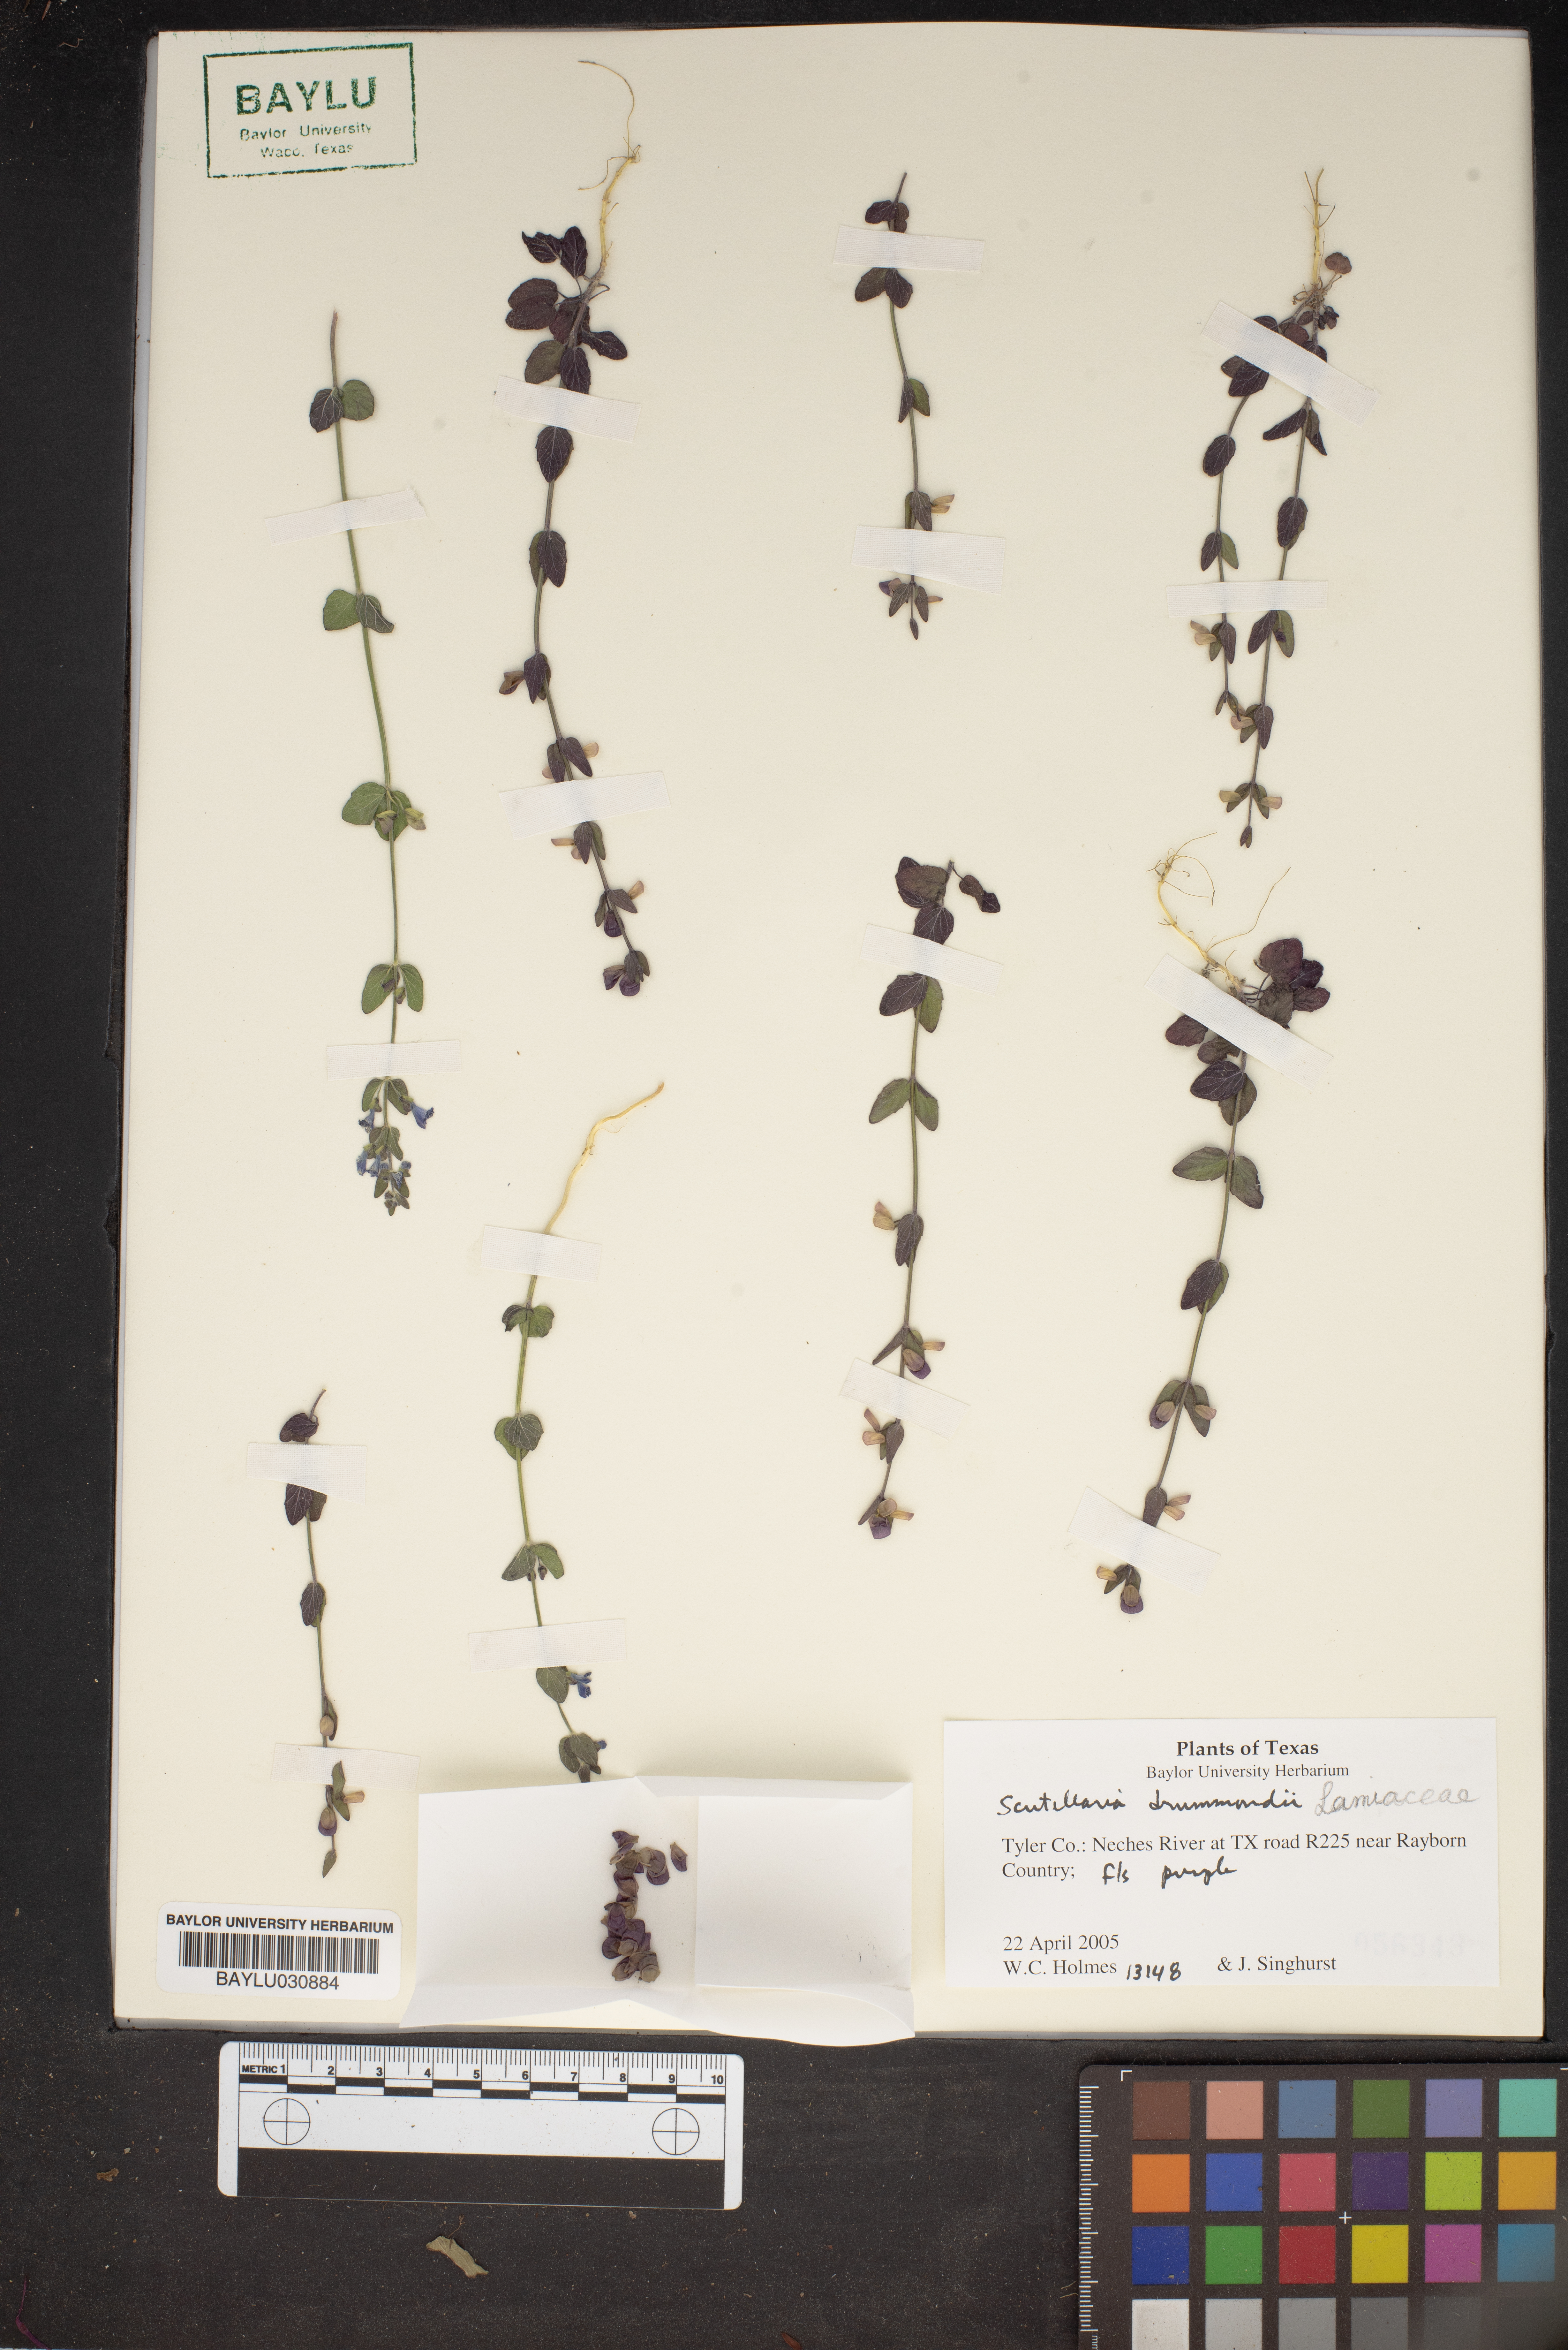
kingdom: Plantae
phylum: Tracheophyta
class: Magnoliopsida
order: Lamiales
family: Lamiaceae
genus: Scutellaria
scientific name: Scutellaria drummondii
